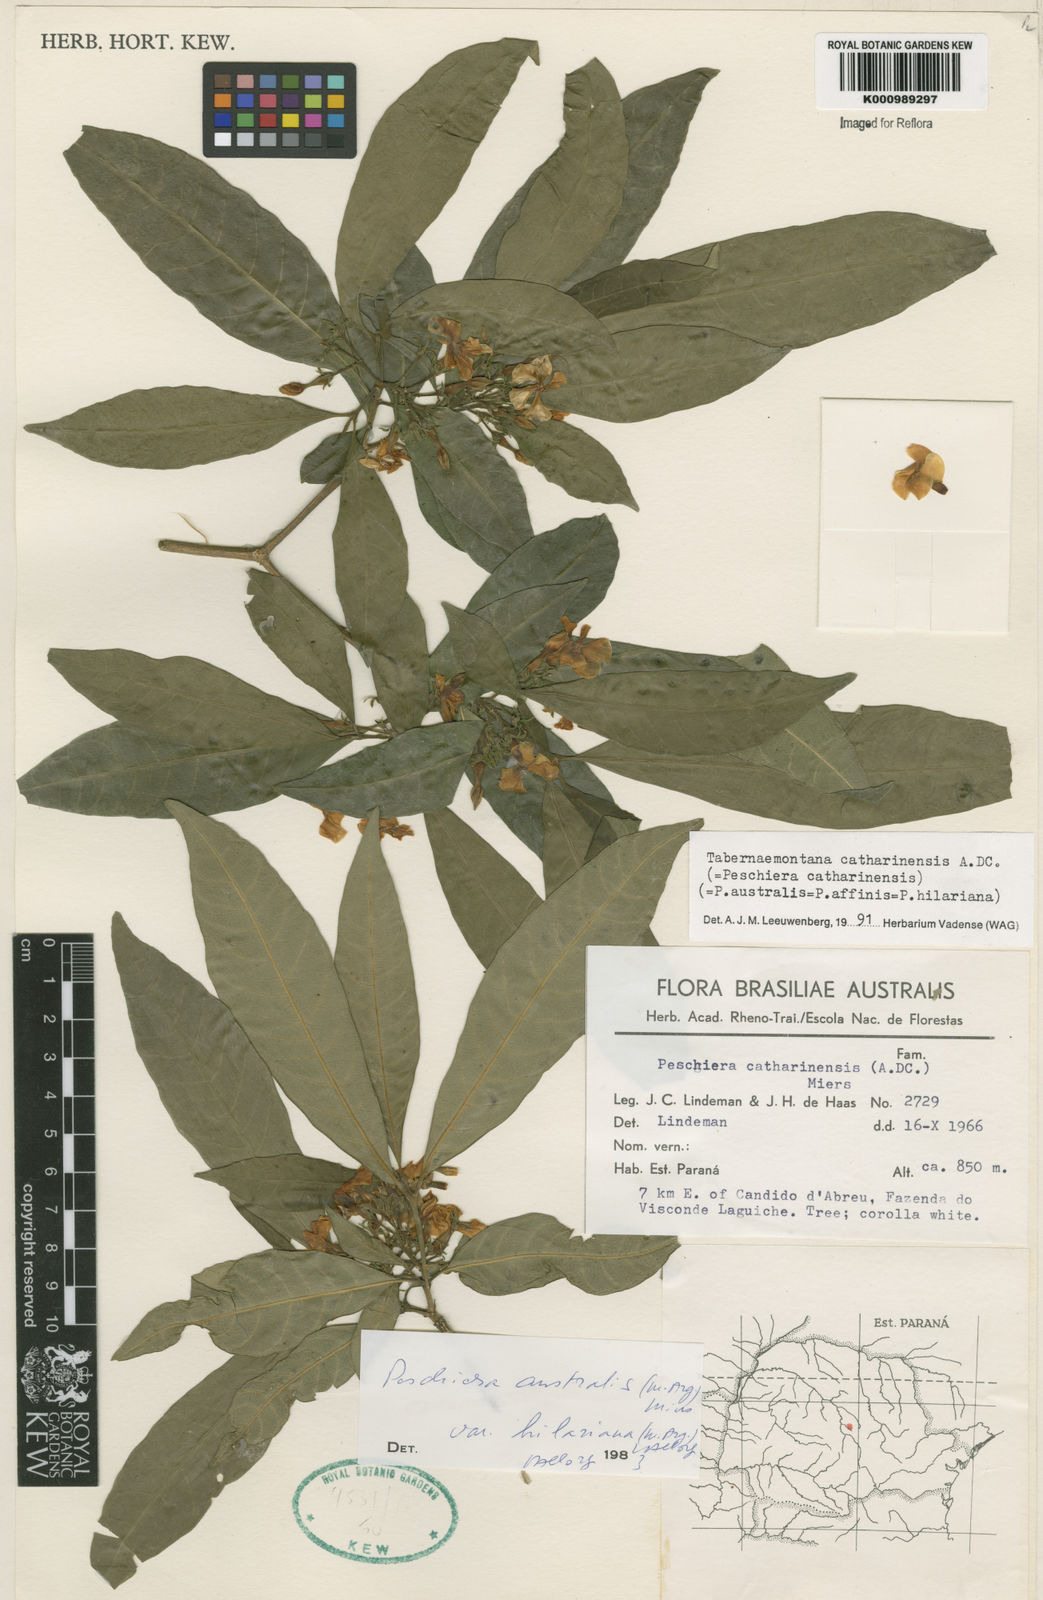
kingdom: Plantae
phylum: Tracheophyta
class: Magnoliopsida
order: Gentianales
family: Apocynaceae
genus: Tabernaemontana
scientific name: Tabernaemontana catharinensis
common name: Pinwheel-flower
